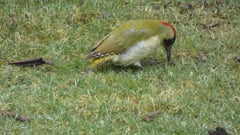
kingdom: Animalia
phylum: Chordata
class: Aves
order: Piciformes
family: Picidae
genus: Picus
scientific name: Picus viridis
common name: European green woodpecker
